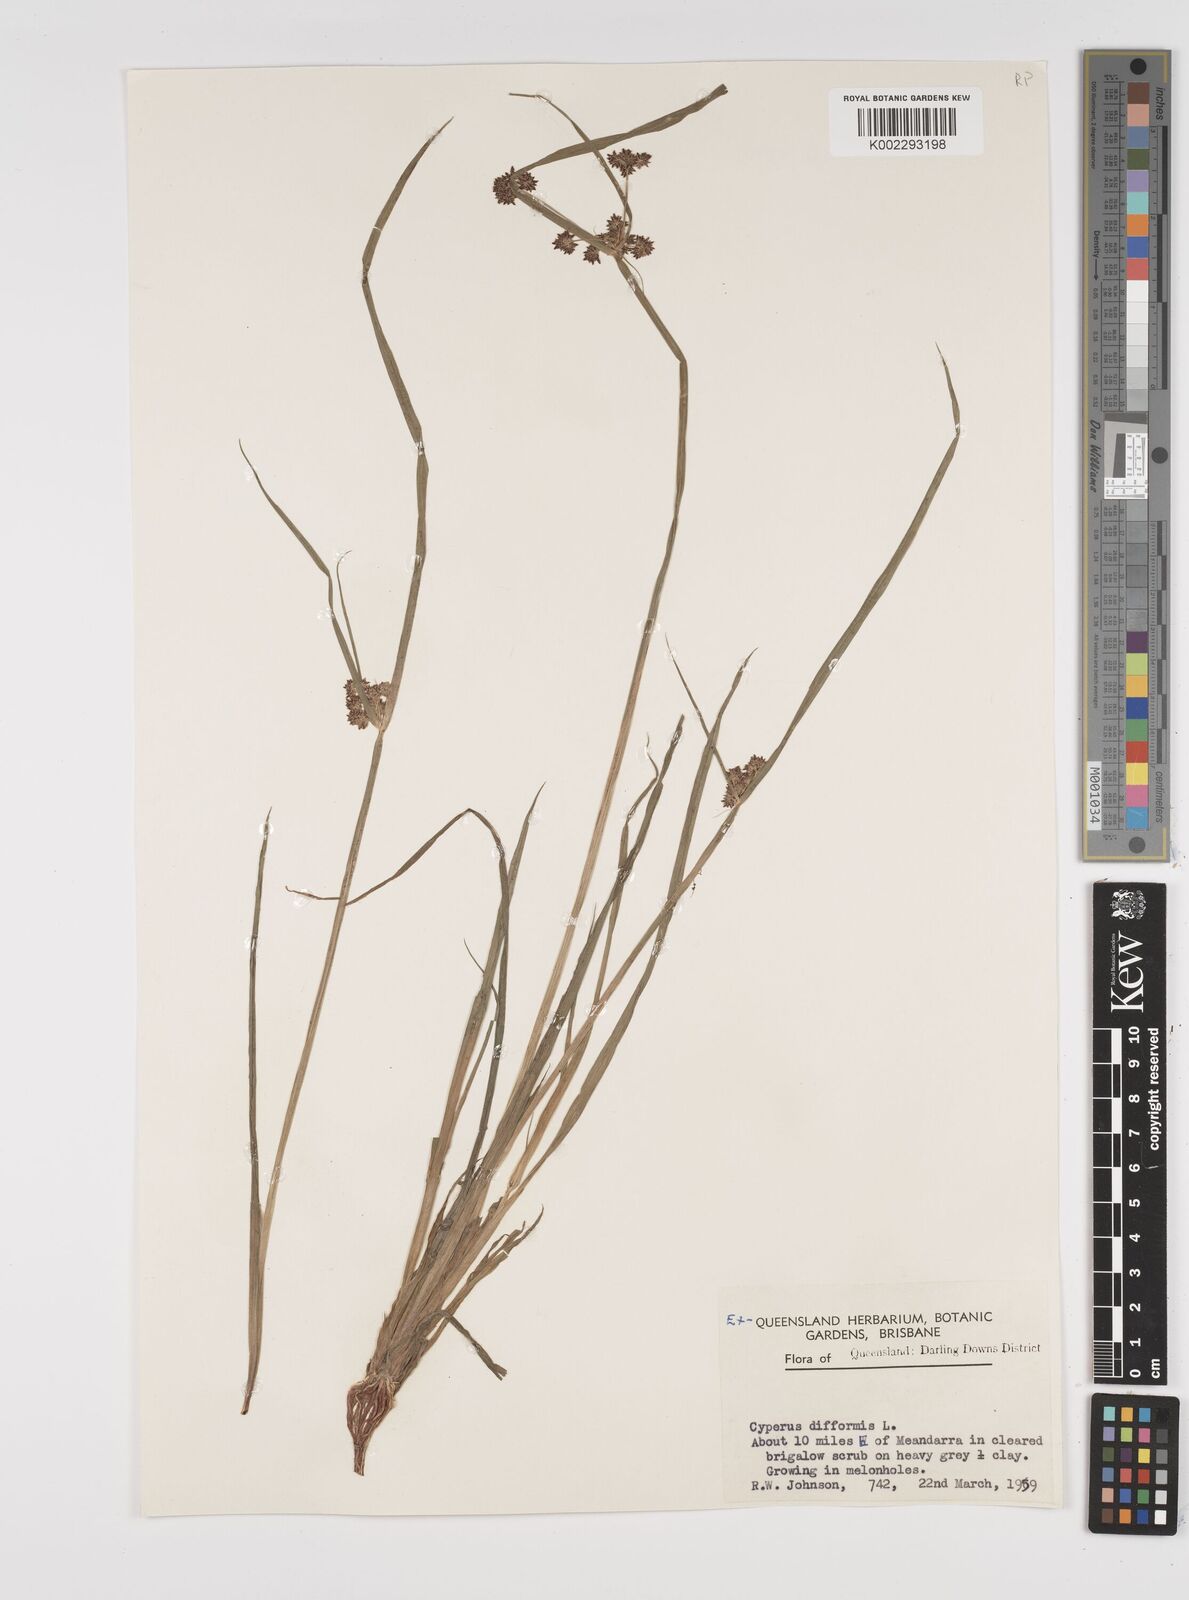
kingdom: Plantae
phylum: Tracheophyta
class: Liliopsida
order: Poales
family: Cyperaceae
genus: Cyperus
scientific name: Cyperus difformis
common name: Variable flatsedge
